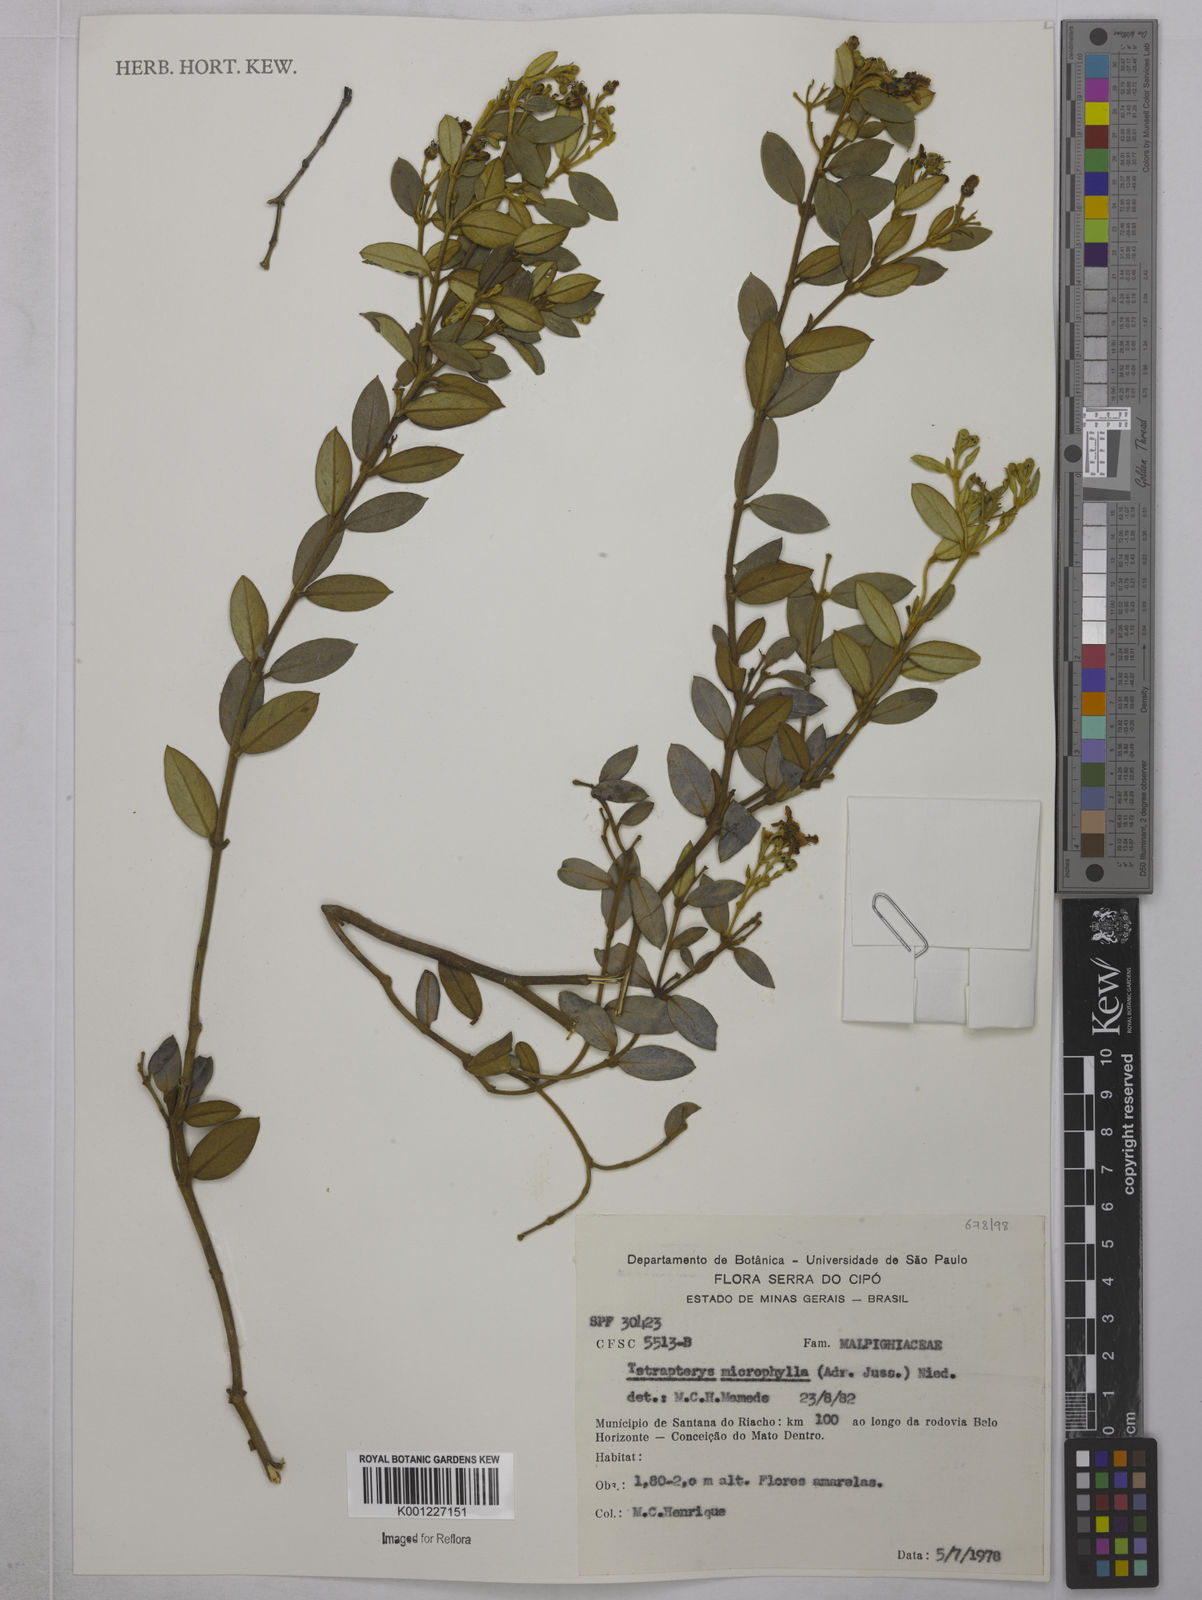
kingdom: Plantae
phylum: Tracheophyta
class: Magnoliopsida
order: Malpighiales
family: Malpighiaceae
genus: Glicophyllum
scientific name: Glicophyllum microphyllum
